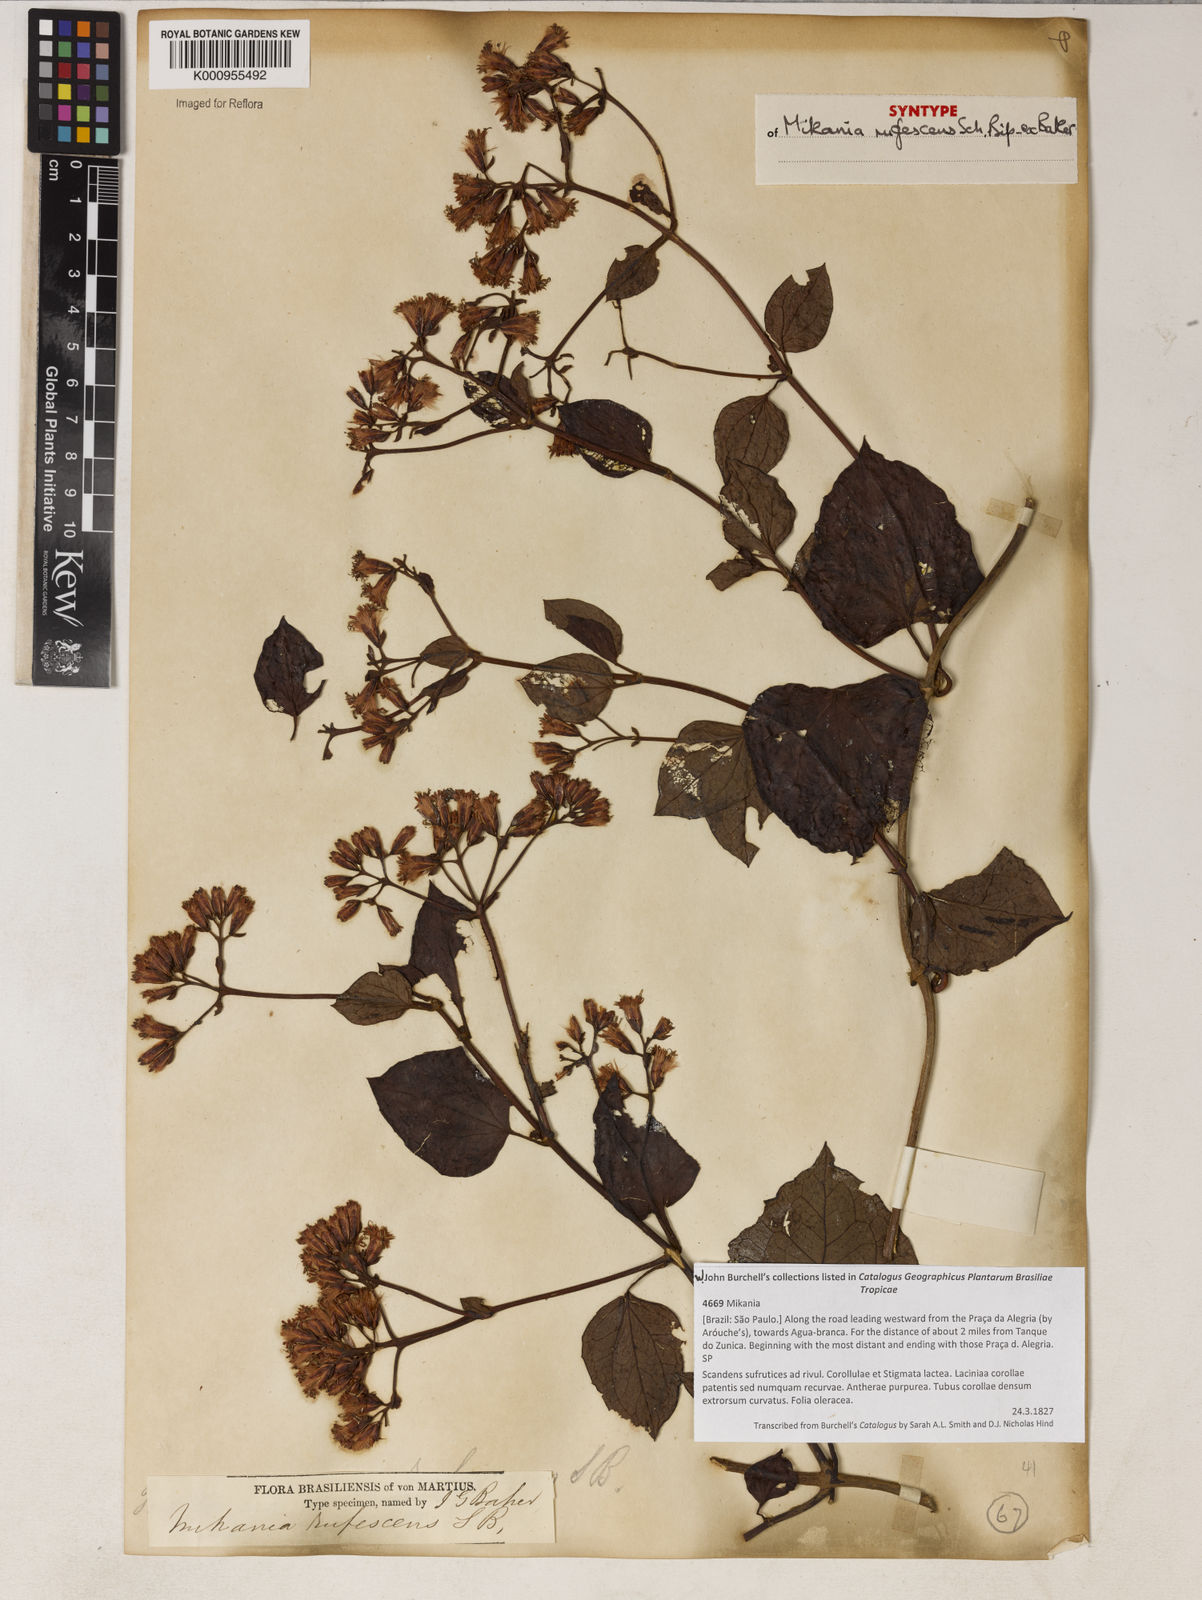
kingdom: Plantae
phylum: Tracheophyta
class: Magnoliopsida
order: Asterales
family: Asteraceae
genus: Mikania
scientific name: Mikania
